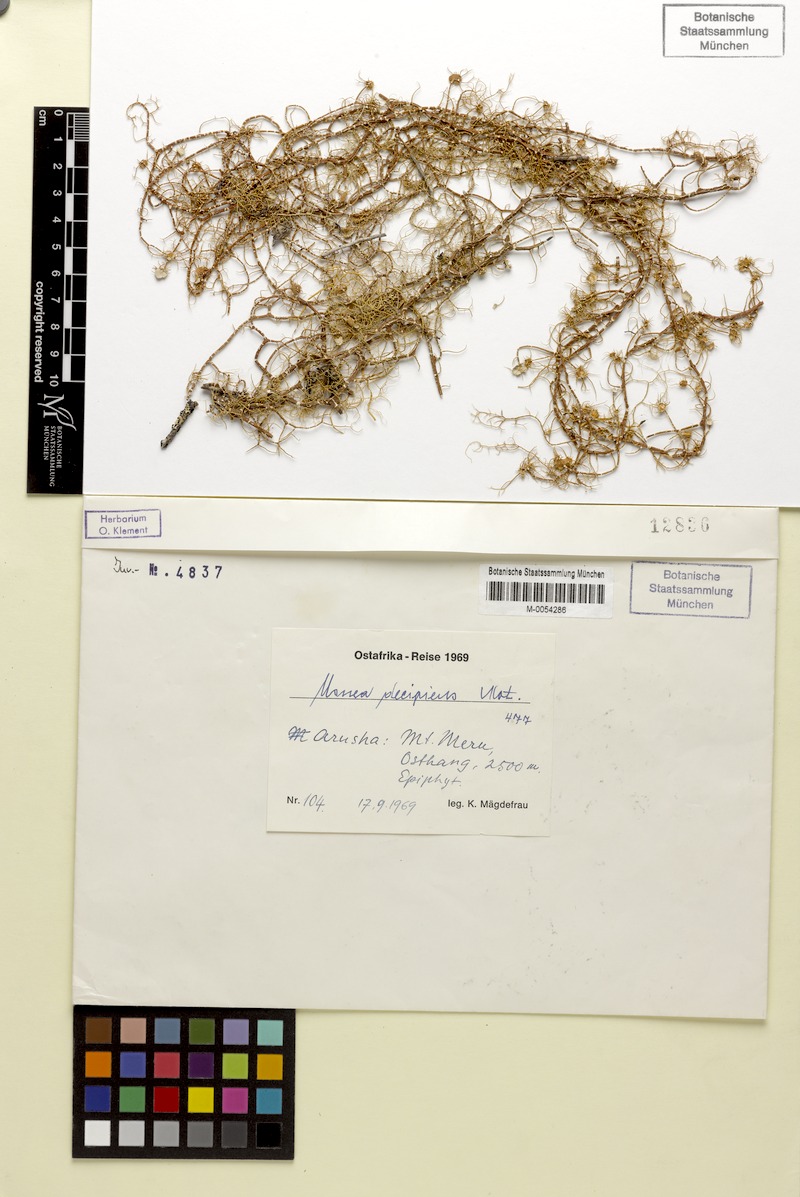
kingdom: Fungi
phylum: Ascomycota
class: Lecanoromycetes
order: Lecanorales
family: Parmeliaceae
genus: Usnea
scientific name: Usnea decipiens
